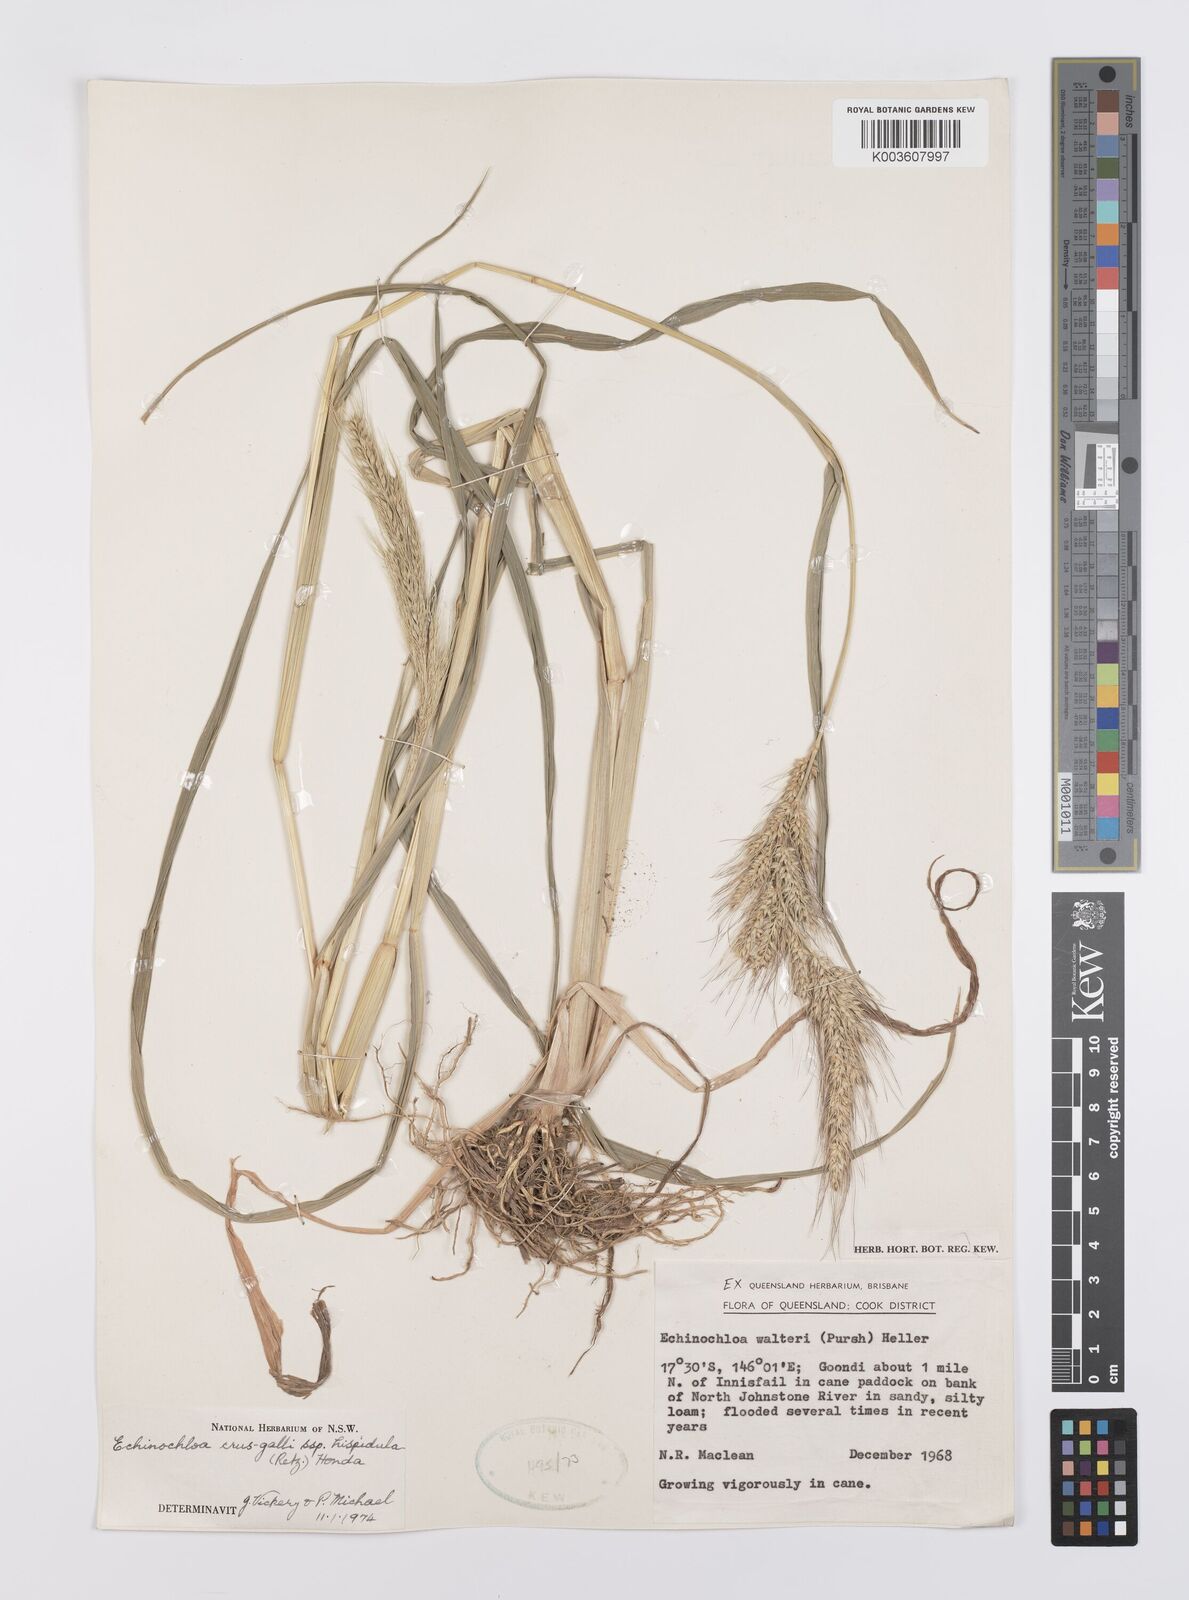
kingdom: Plantae
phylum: Tracheophyta
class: Liliopsida
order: Poales
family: Poaceae
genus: Echinochloa
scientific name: Echinochloa crus-galli
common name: Cockspur
